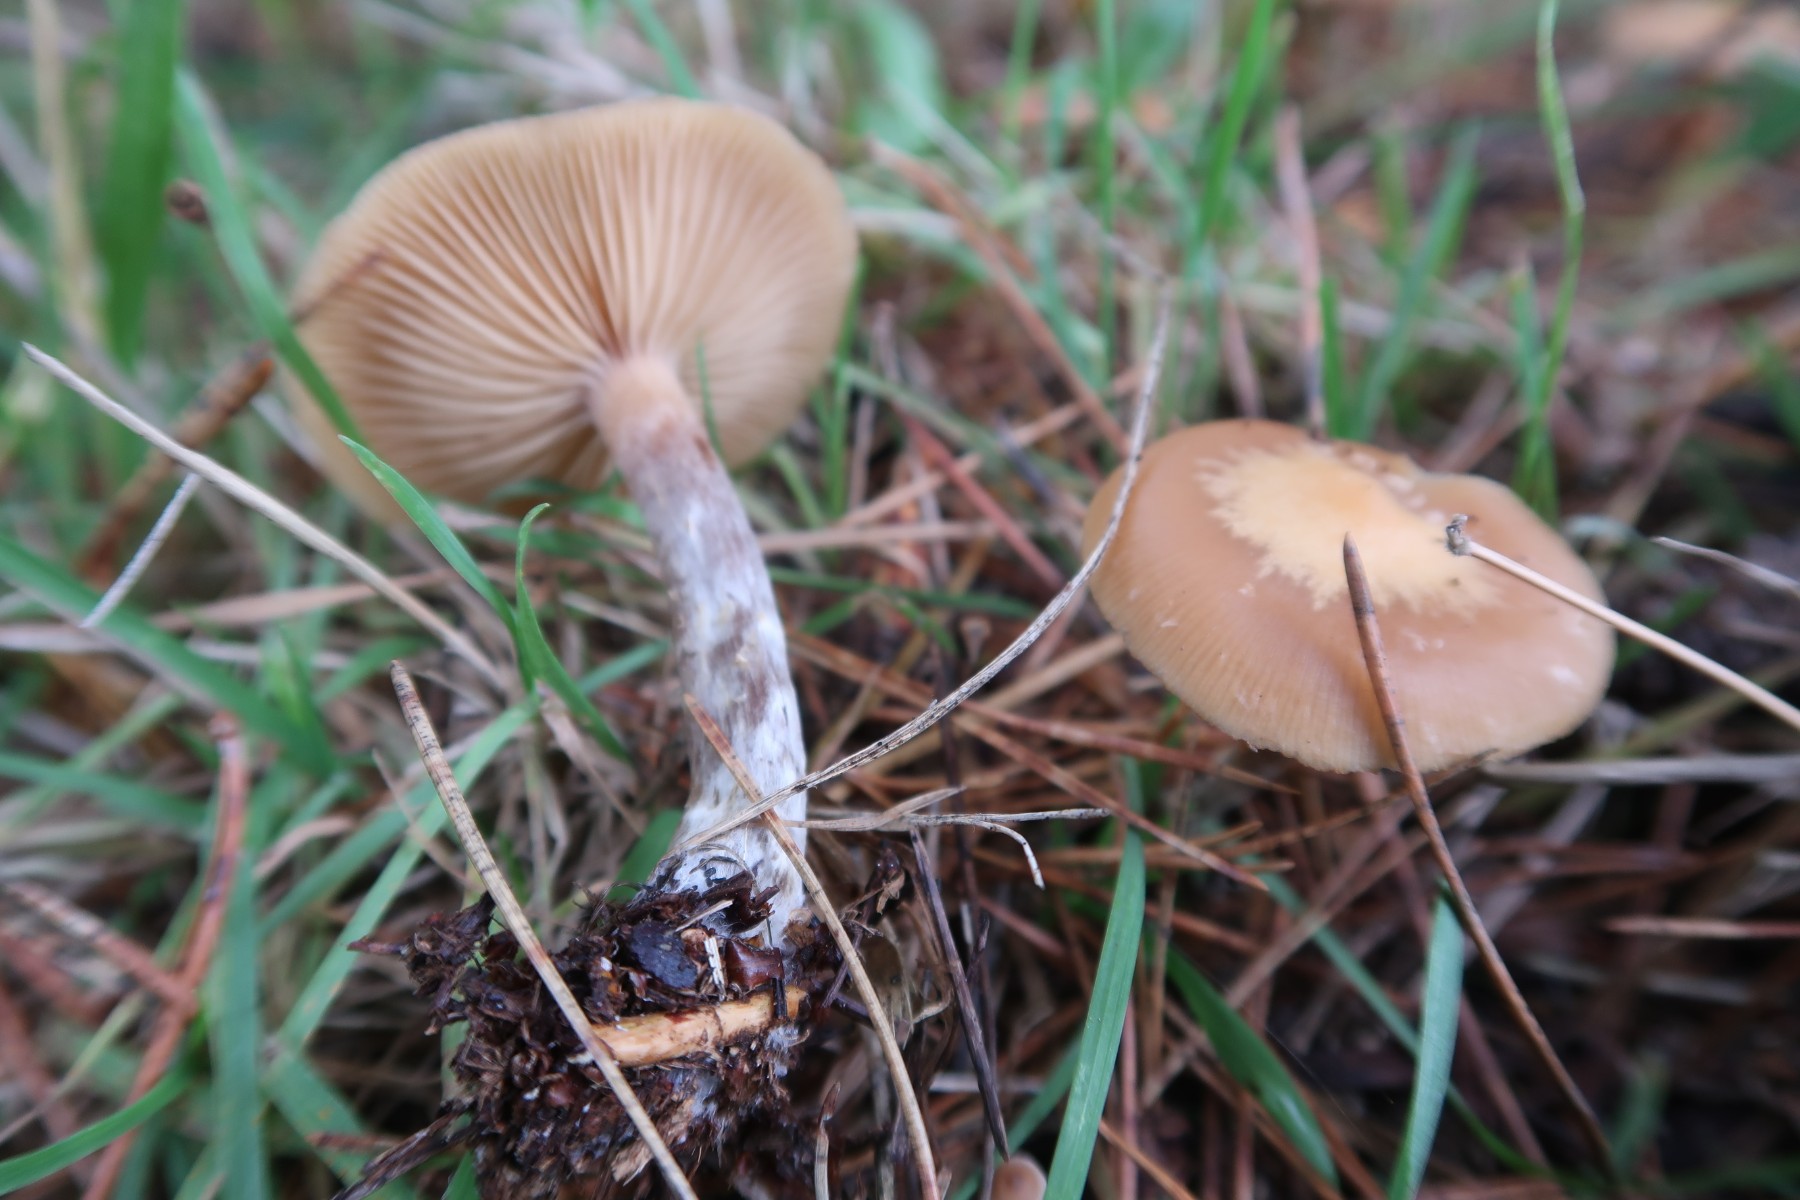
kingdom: Fungi
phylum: Basidiomycota
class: Agaricomycetes
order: Agaricales
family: Hymenogastraceae
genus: Galerina
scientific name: Galerina sideroides
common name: træflis-hjelmhat
